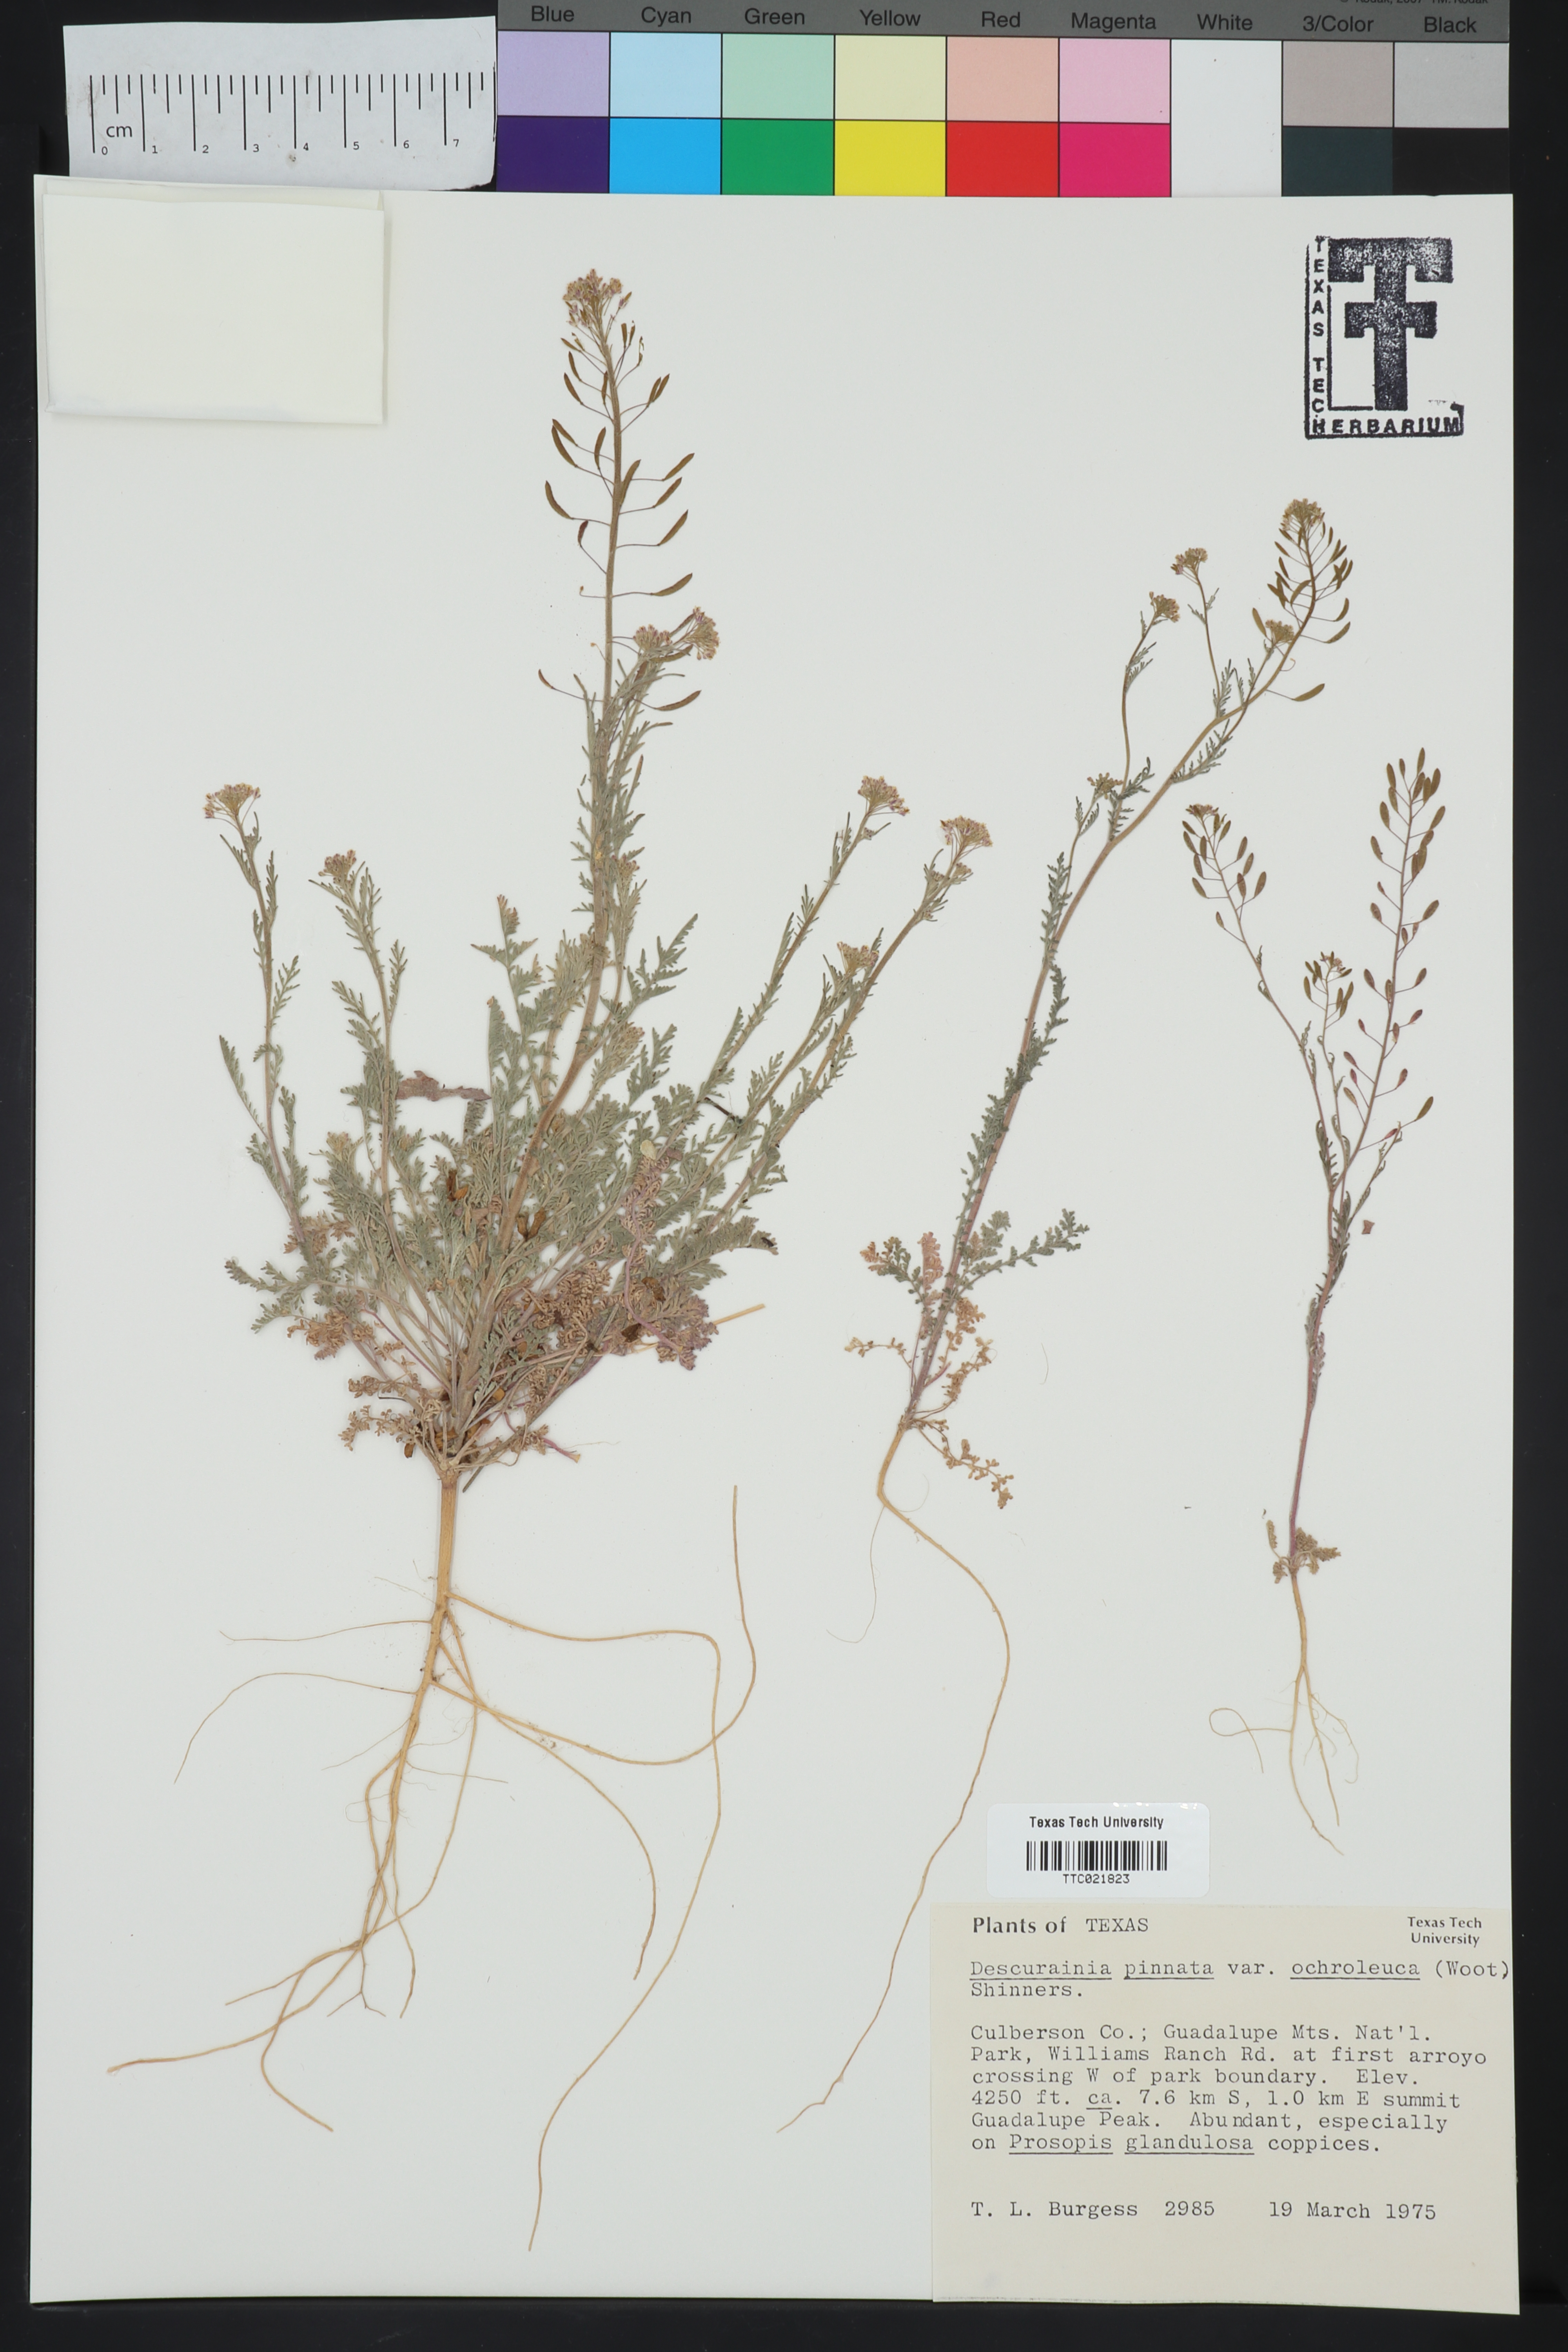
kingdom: Plantae
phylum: Tracheophyta
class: Magnoliopsida
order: Brassicales
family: Brassicaceae
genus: Descurainia
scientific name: Descurainia pinnata
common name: Western tansy mustard
